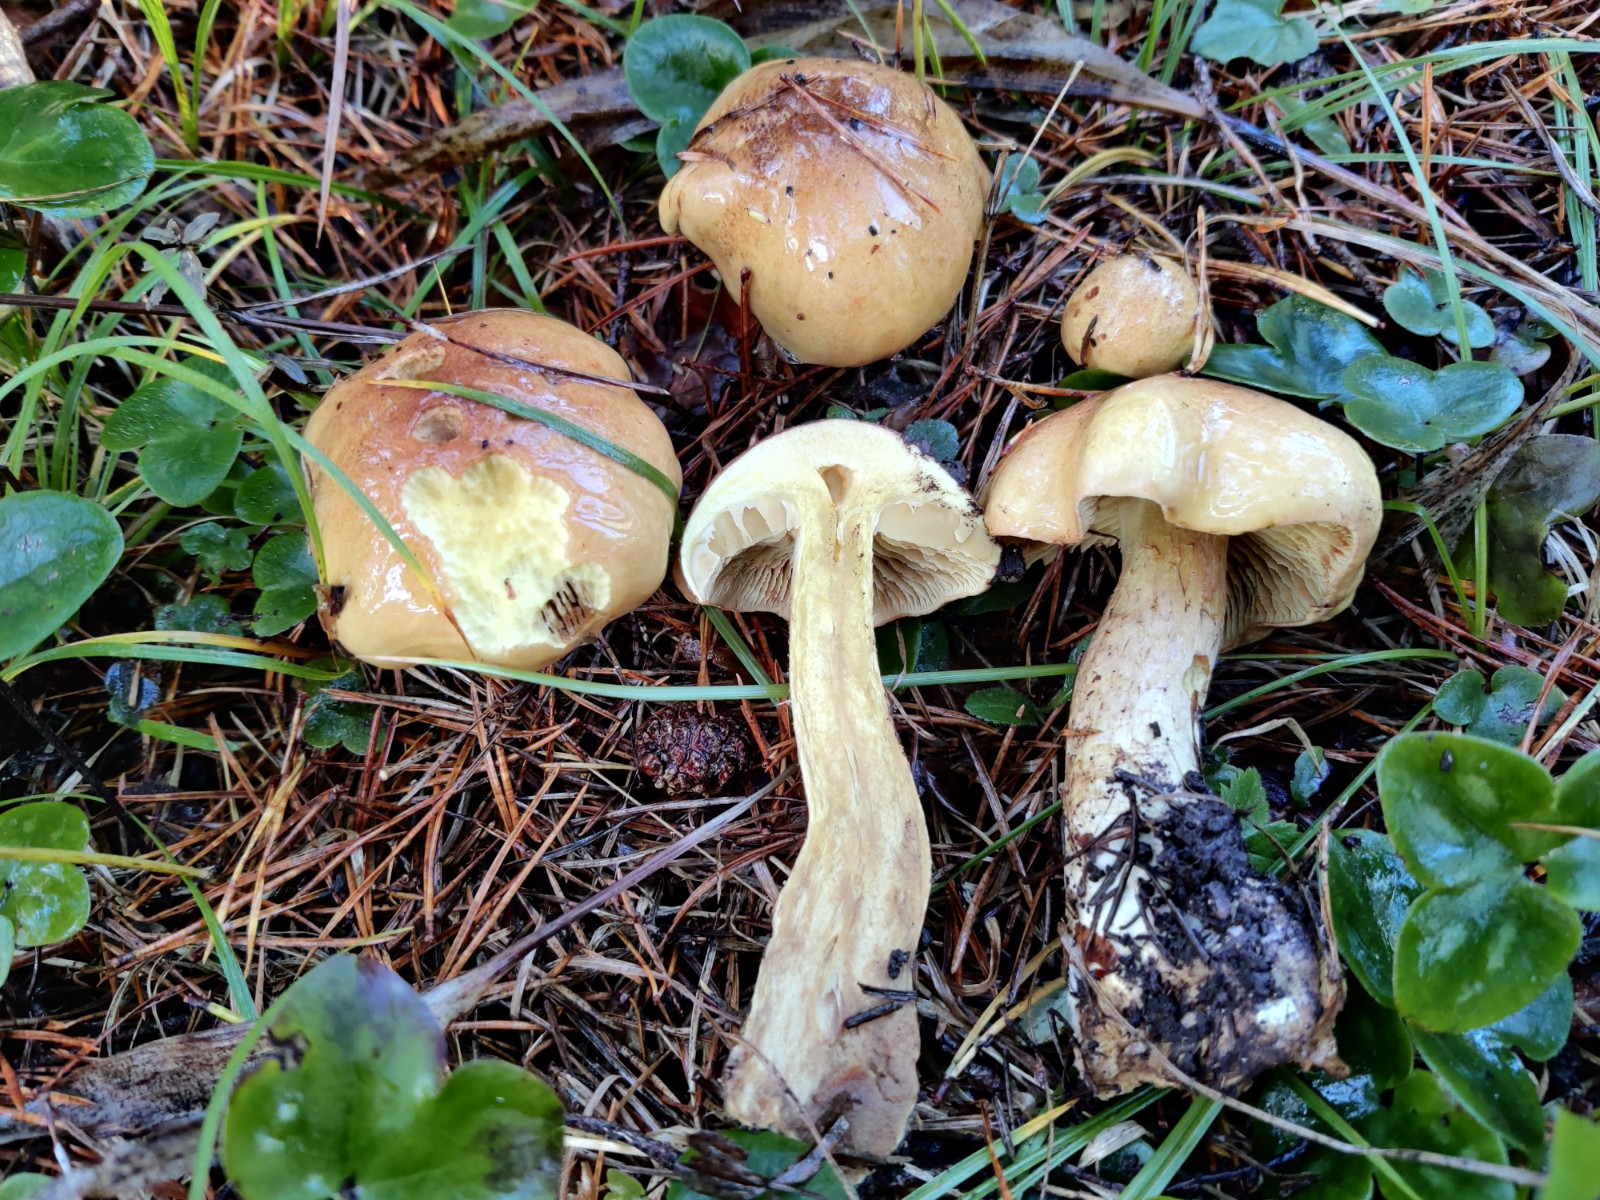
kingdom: Fungi
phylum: Basidiomycota
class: Agaricomycetes
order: Agaricales
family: Cortinariaceae
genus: Phlegmacium
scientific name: Phlegmacium mussivum
